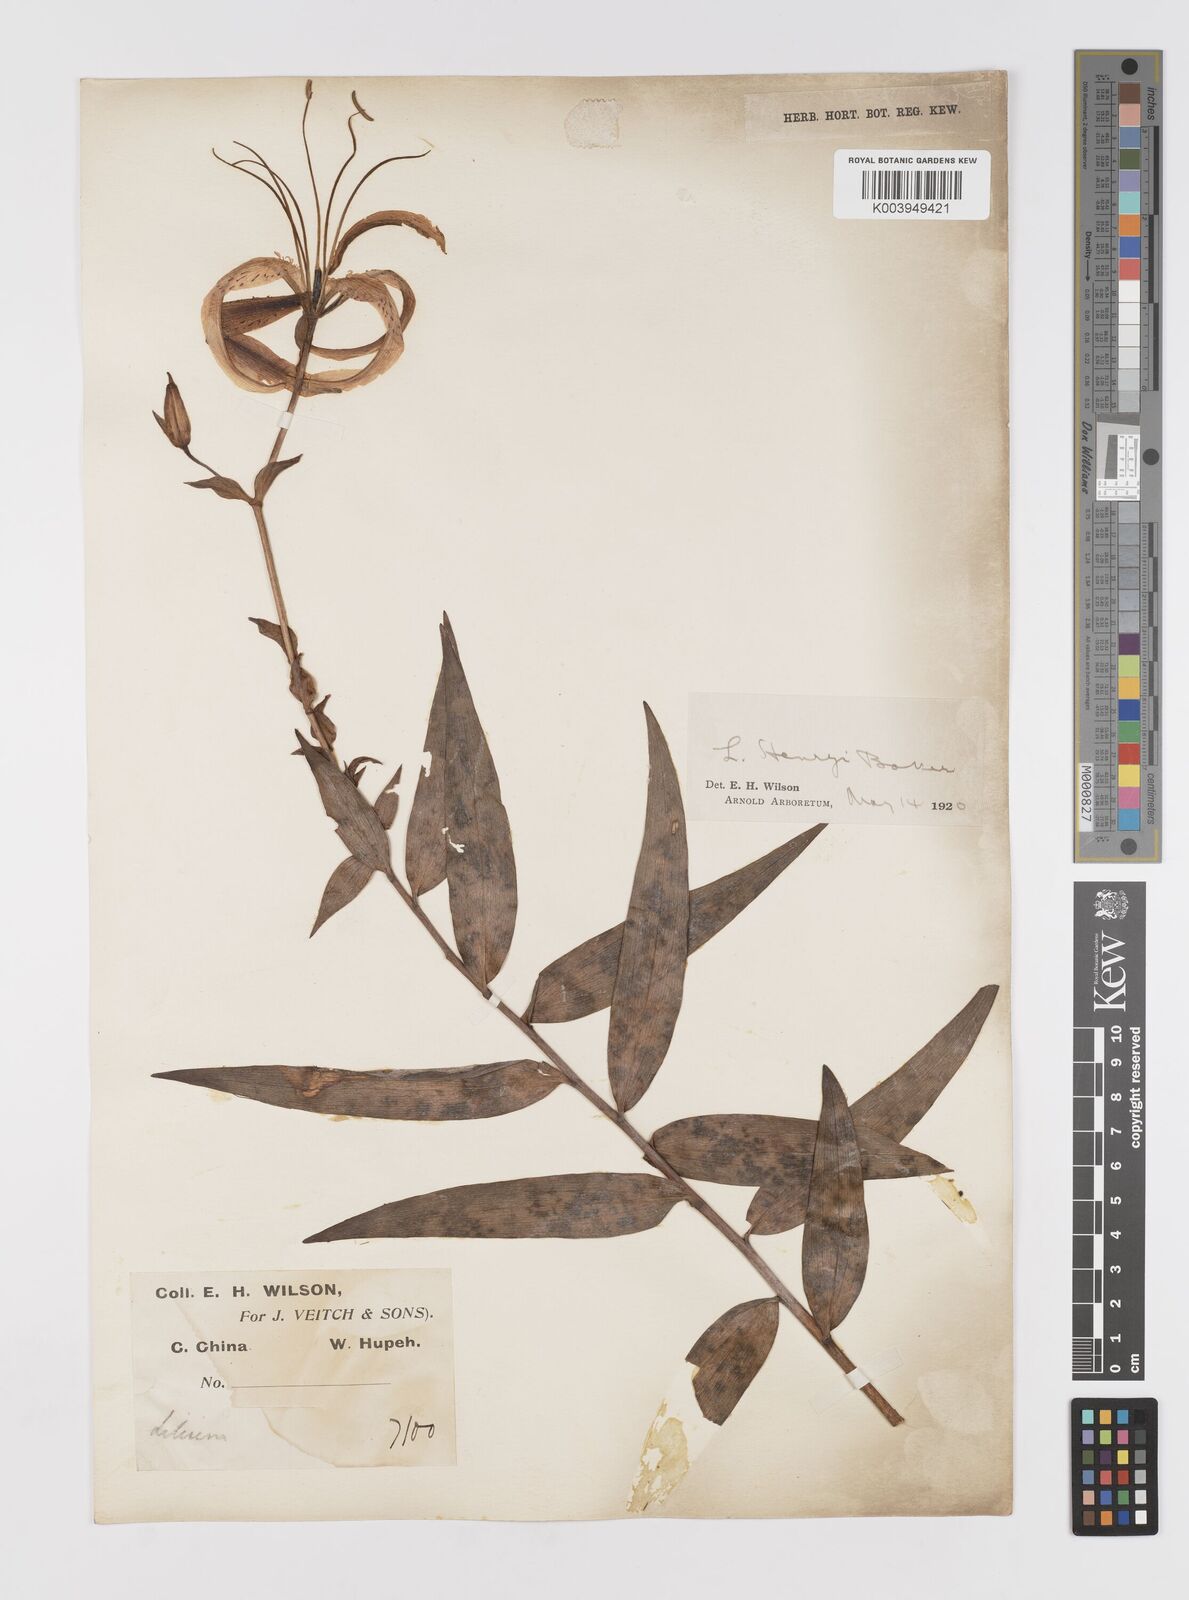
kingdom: Plantae
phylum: Tracheophyta
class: Liliopsida
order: Liliales
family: Liliaceae
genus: Lilium
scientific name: Lilium henryi
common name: Henry's lily
